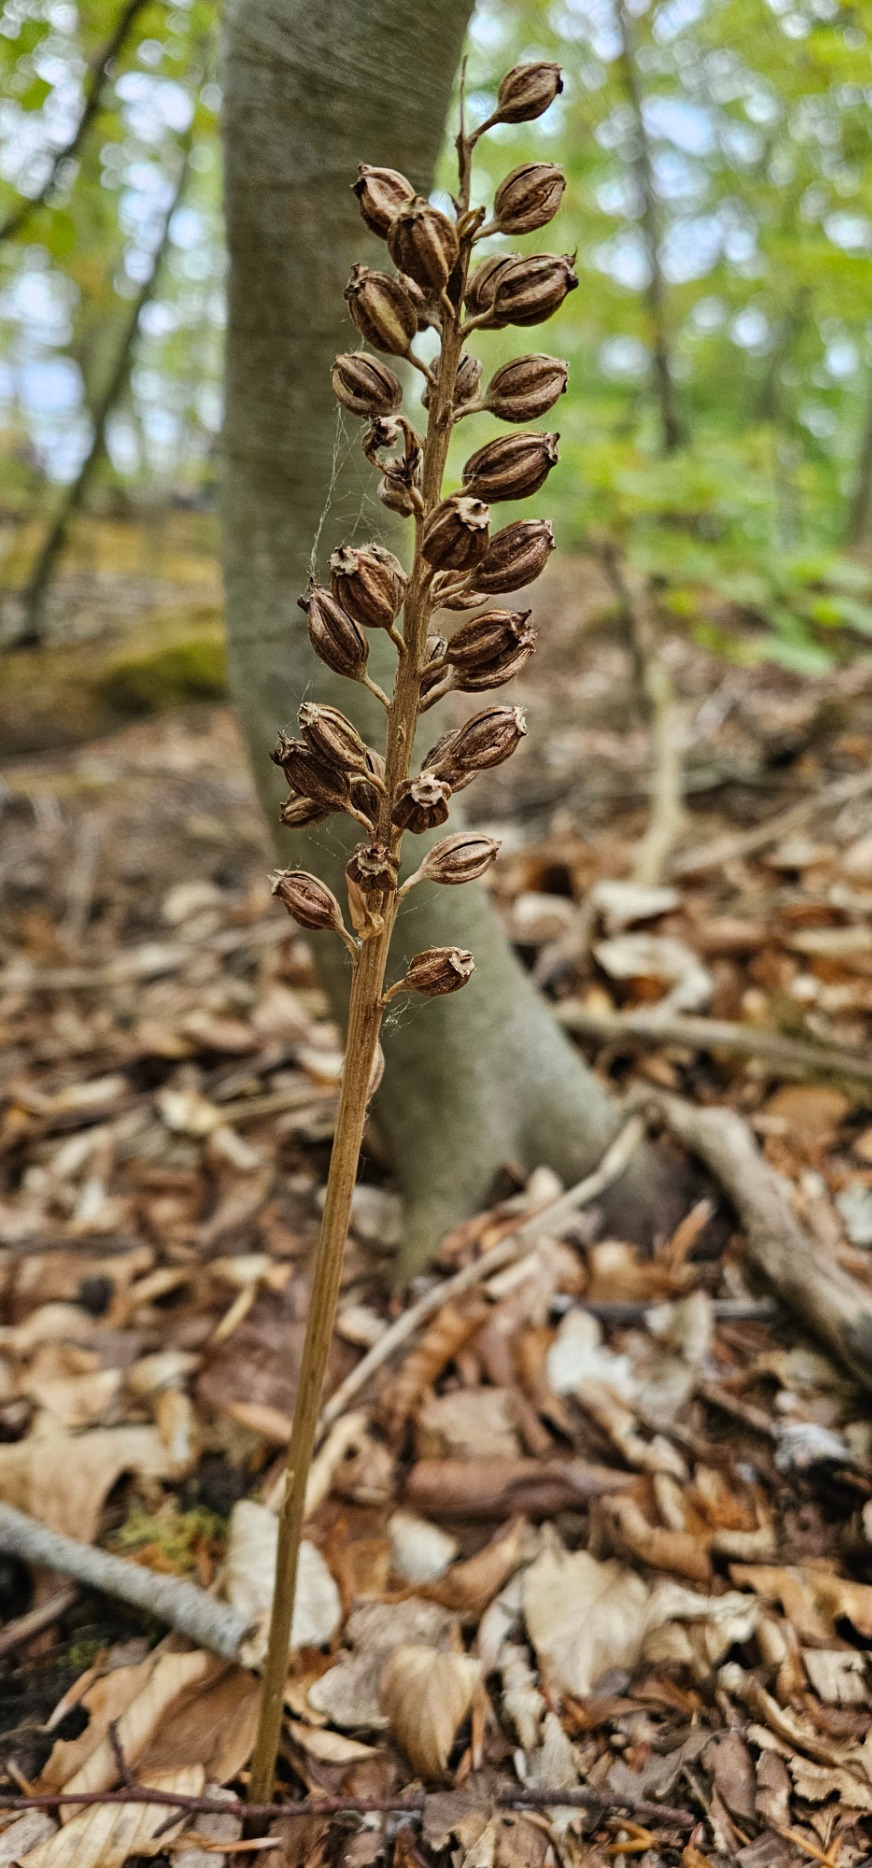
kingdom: Plantae
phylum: Tracheophyta
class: Liliopsida
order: Asparagales
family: Orchidaceae
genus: Neottia
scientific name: Neottia nidus-avis
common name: Rederod
